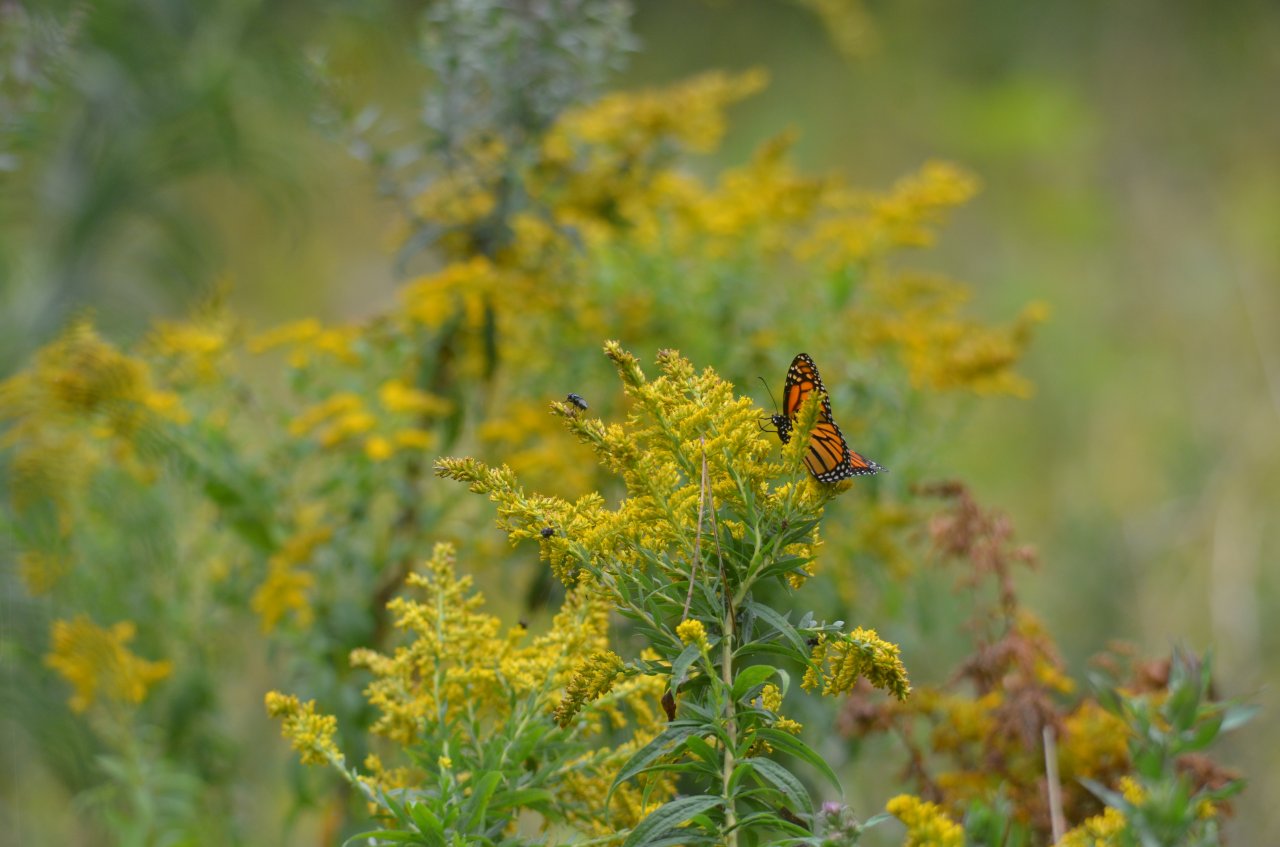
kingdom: Animalia
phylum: Arthropoda
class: Insecta
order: Lepidoptera
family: Nymphalidae
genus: Danaus
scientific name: Danaus plexippus
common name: Monarch
